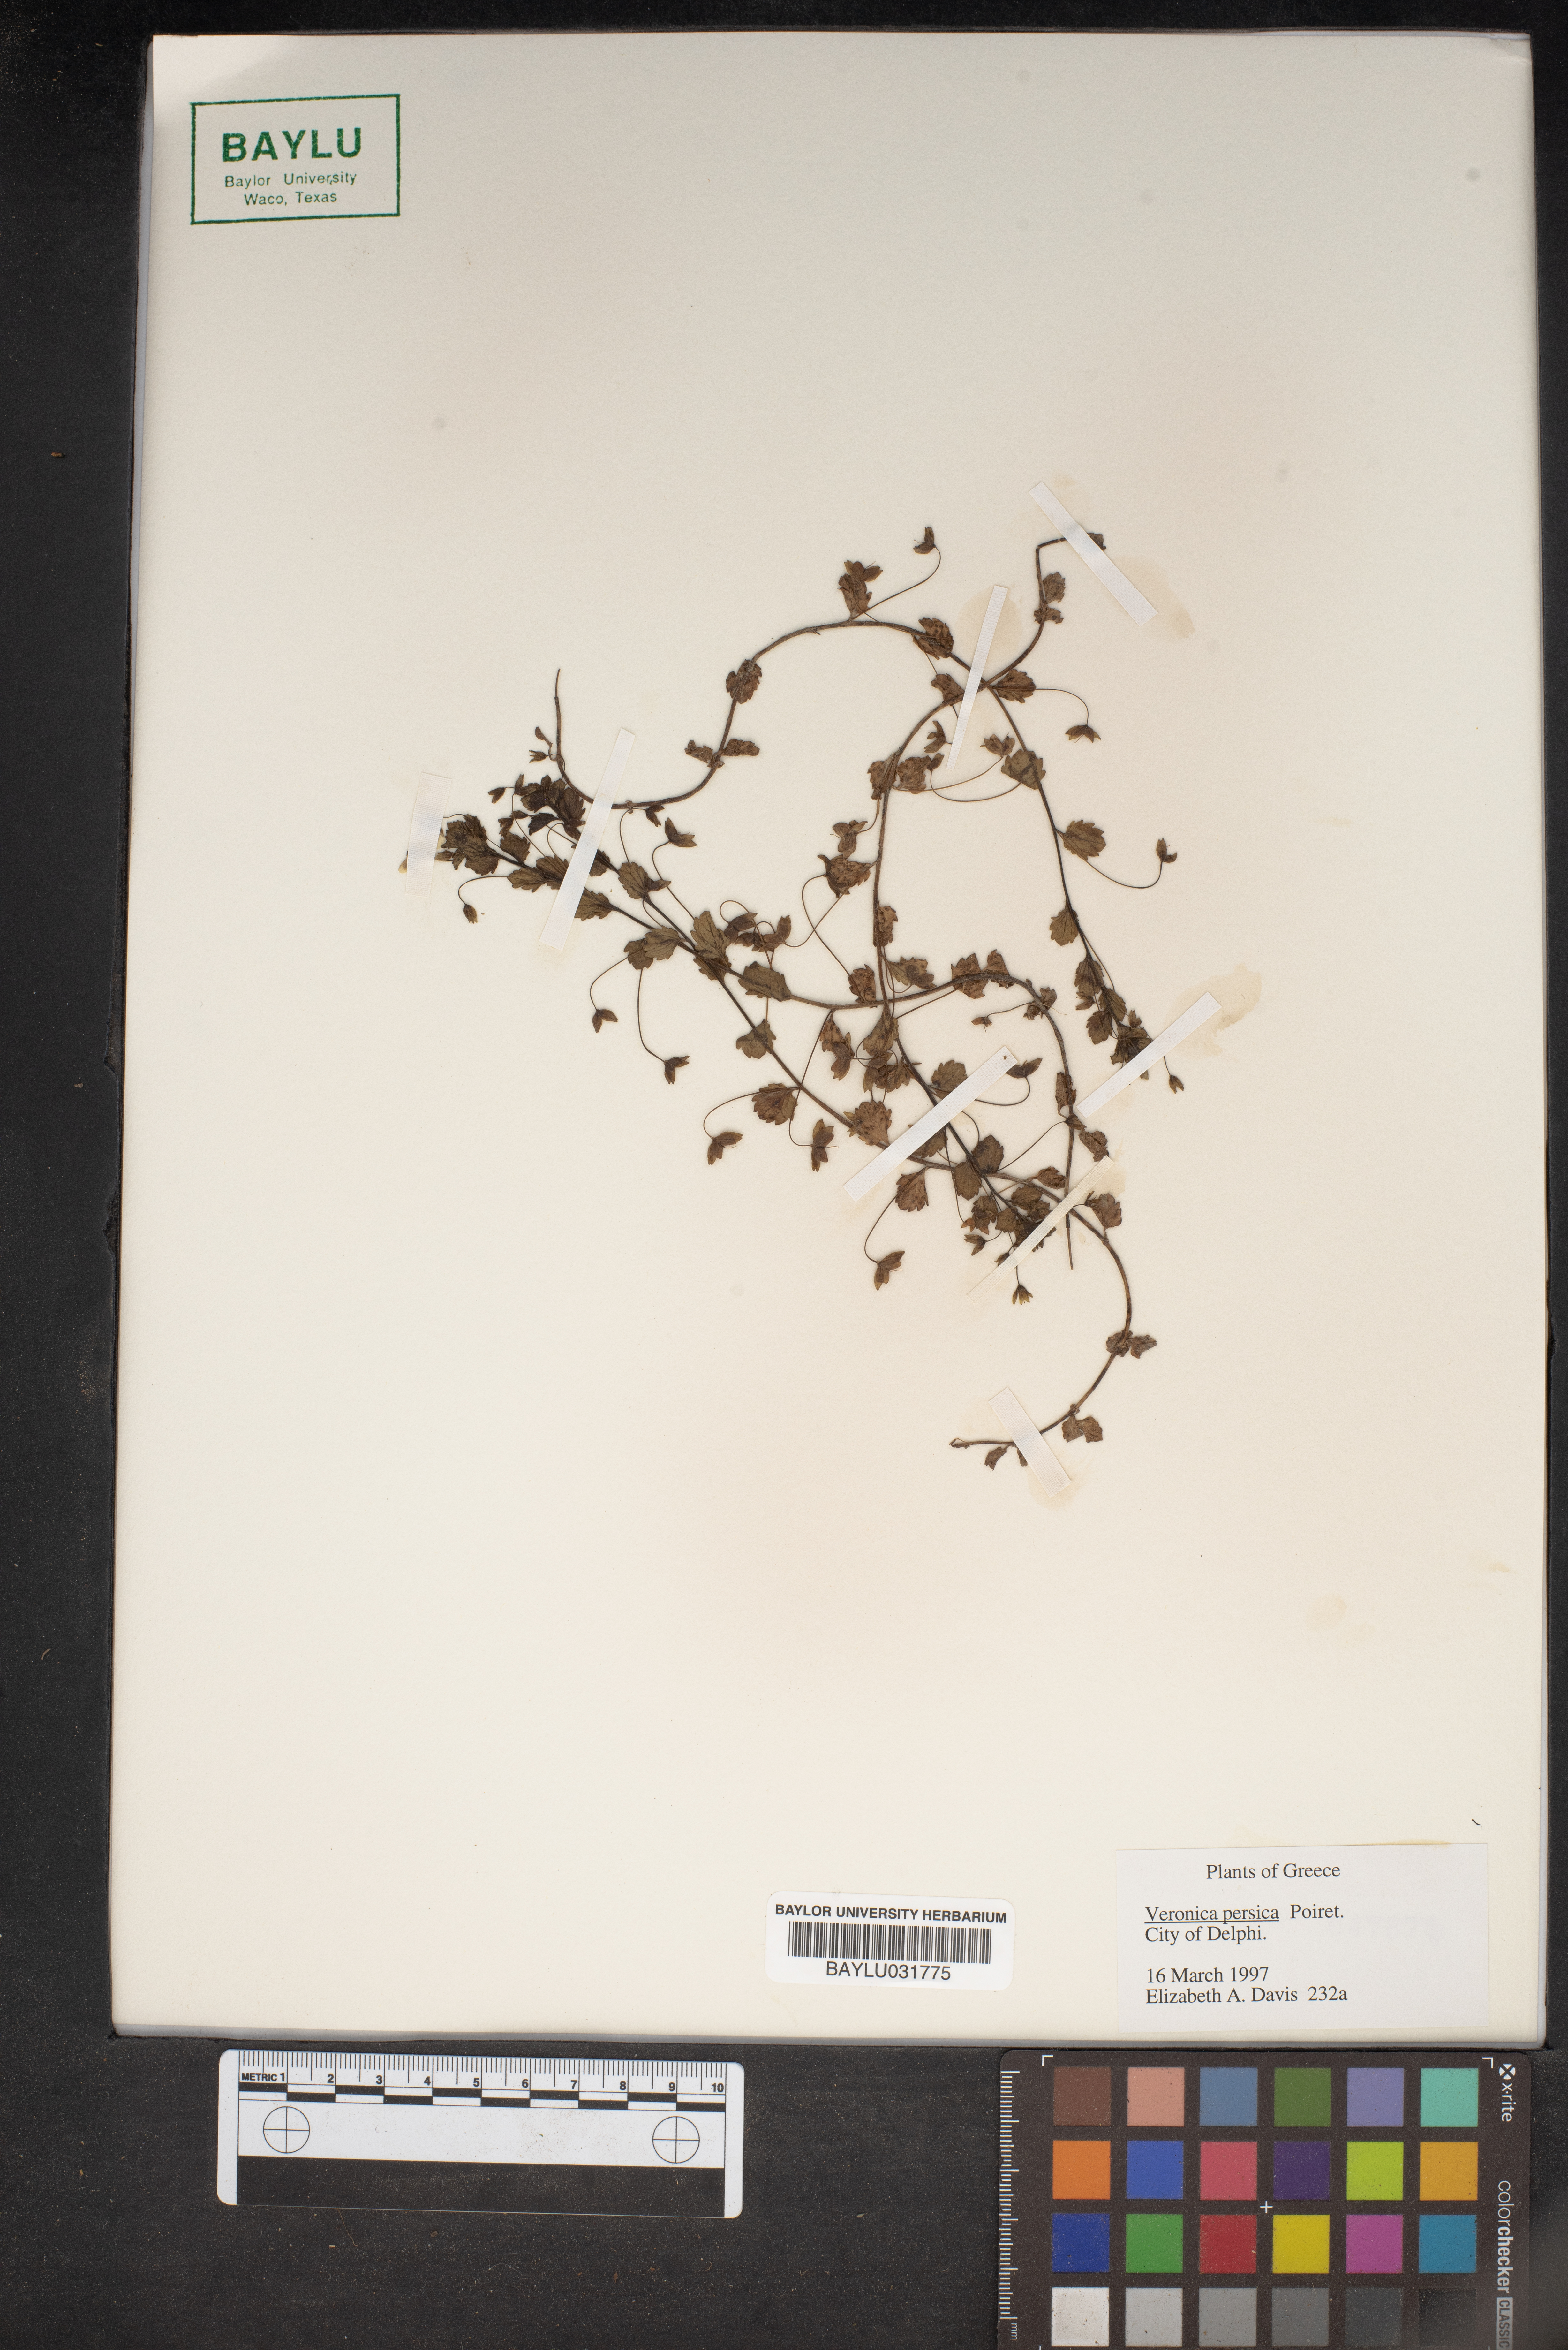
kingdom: Plantae
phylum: Tracheophyta
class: Magnoliopsida
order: Lamiales
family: Plantaginaceae
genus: Veronica
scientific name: Veronica persica
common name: Common field-speedwell
